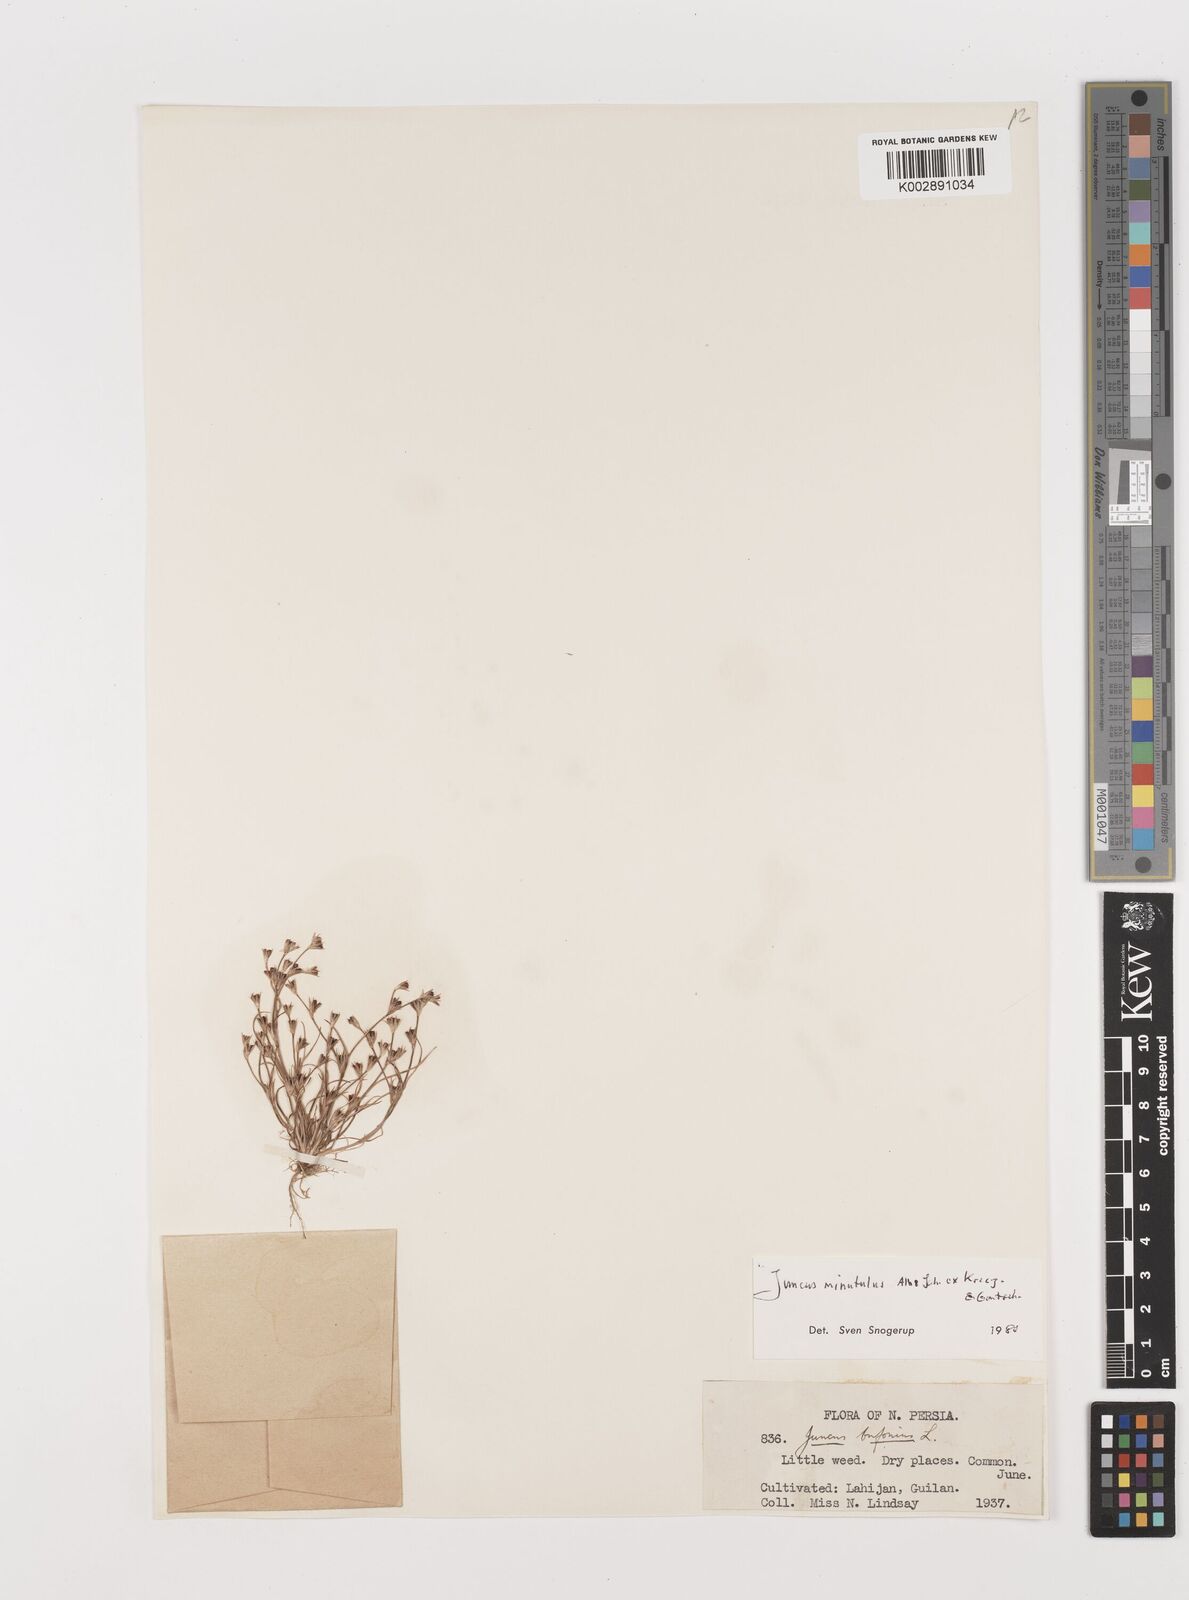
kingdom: Plantae
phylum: Tracheophyta
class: Liliopsida
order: Poales
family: Juncaceae
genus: Juncus
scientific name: Juncus bufonius
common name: Toad rush
